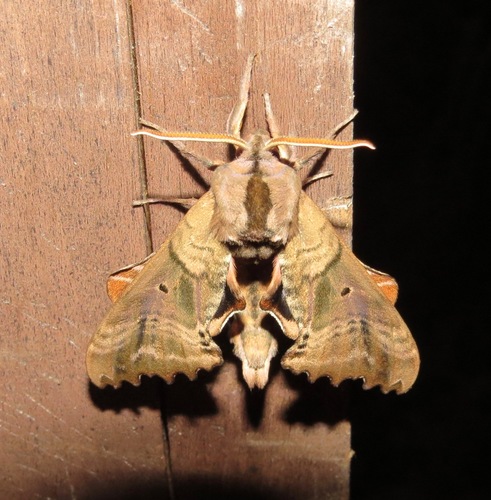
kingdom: Animalia
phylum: Arthropoda
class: Insecta
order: Lepidoptera
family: Sphingidae
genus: Paonias
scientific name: Paonias excaecata
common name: Blind-eyed sphinx
